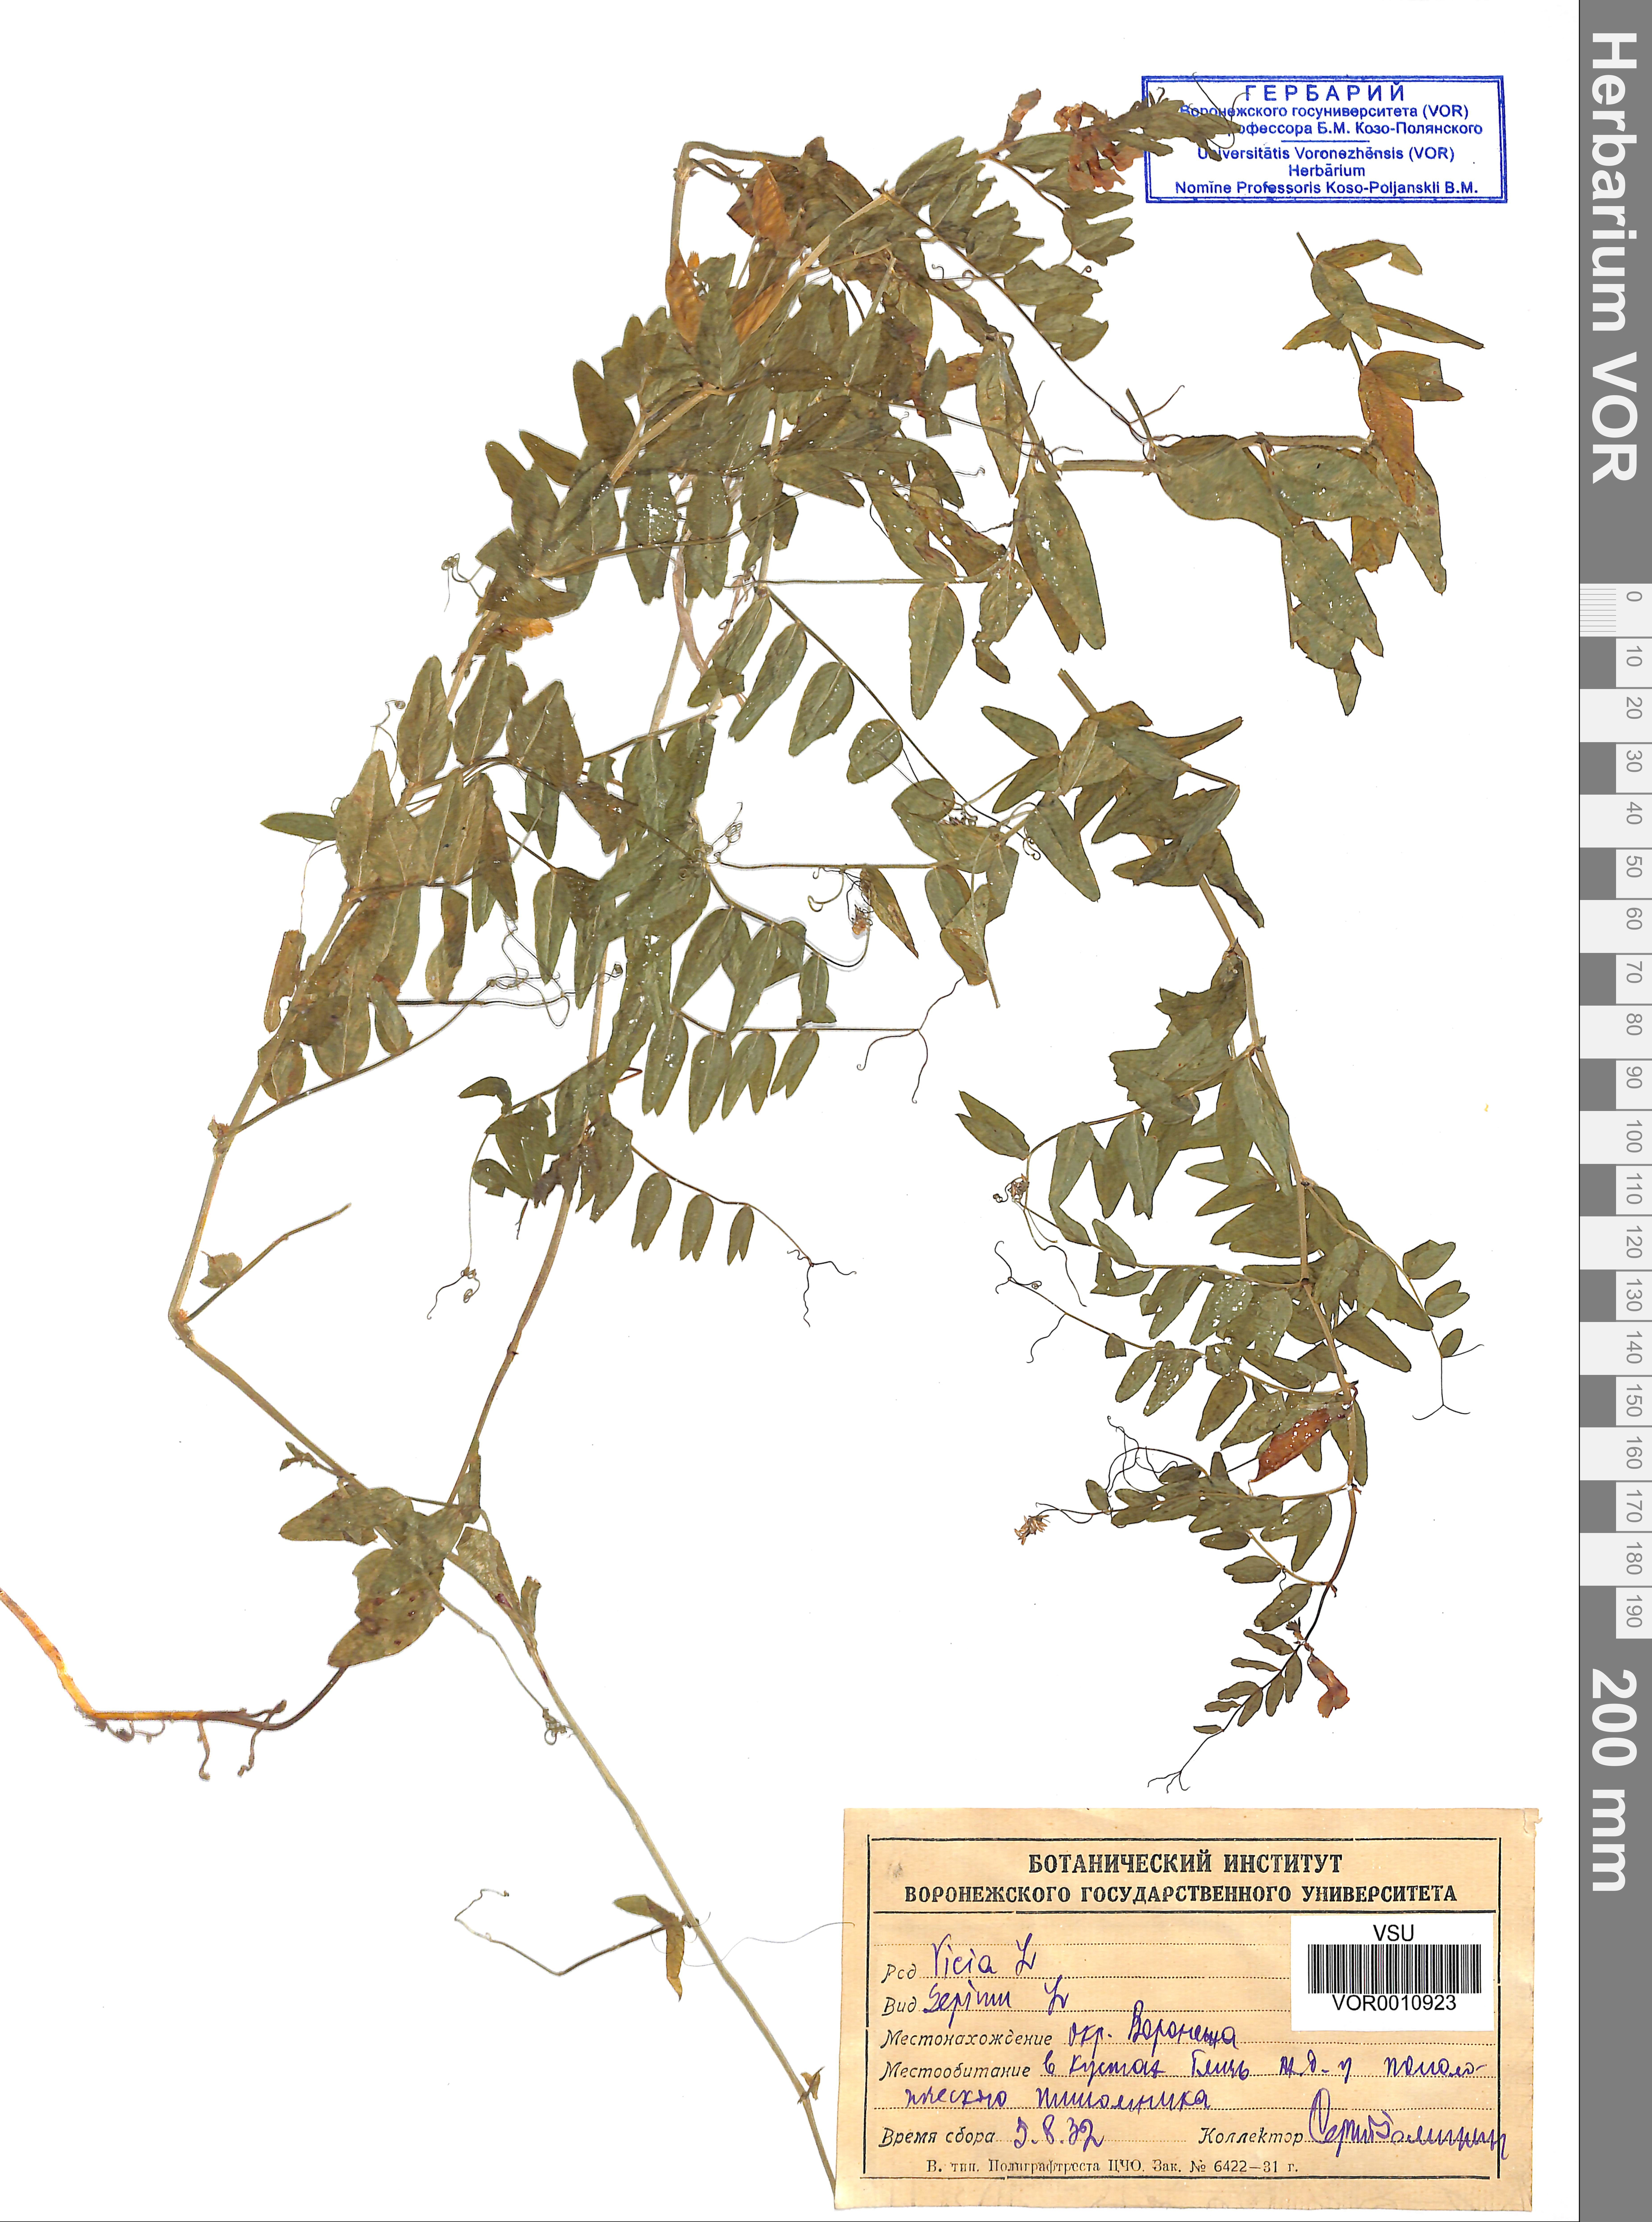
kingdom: Plantae
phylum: Tracheophyta
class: Magnoliopsida
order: Fabales
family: Fabaceae
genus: Vicia
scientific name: Vicia sepium
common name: Bush vetch
